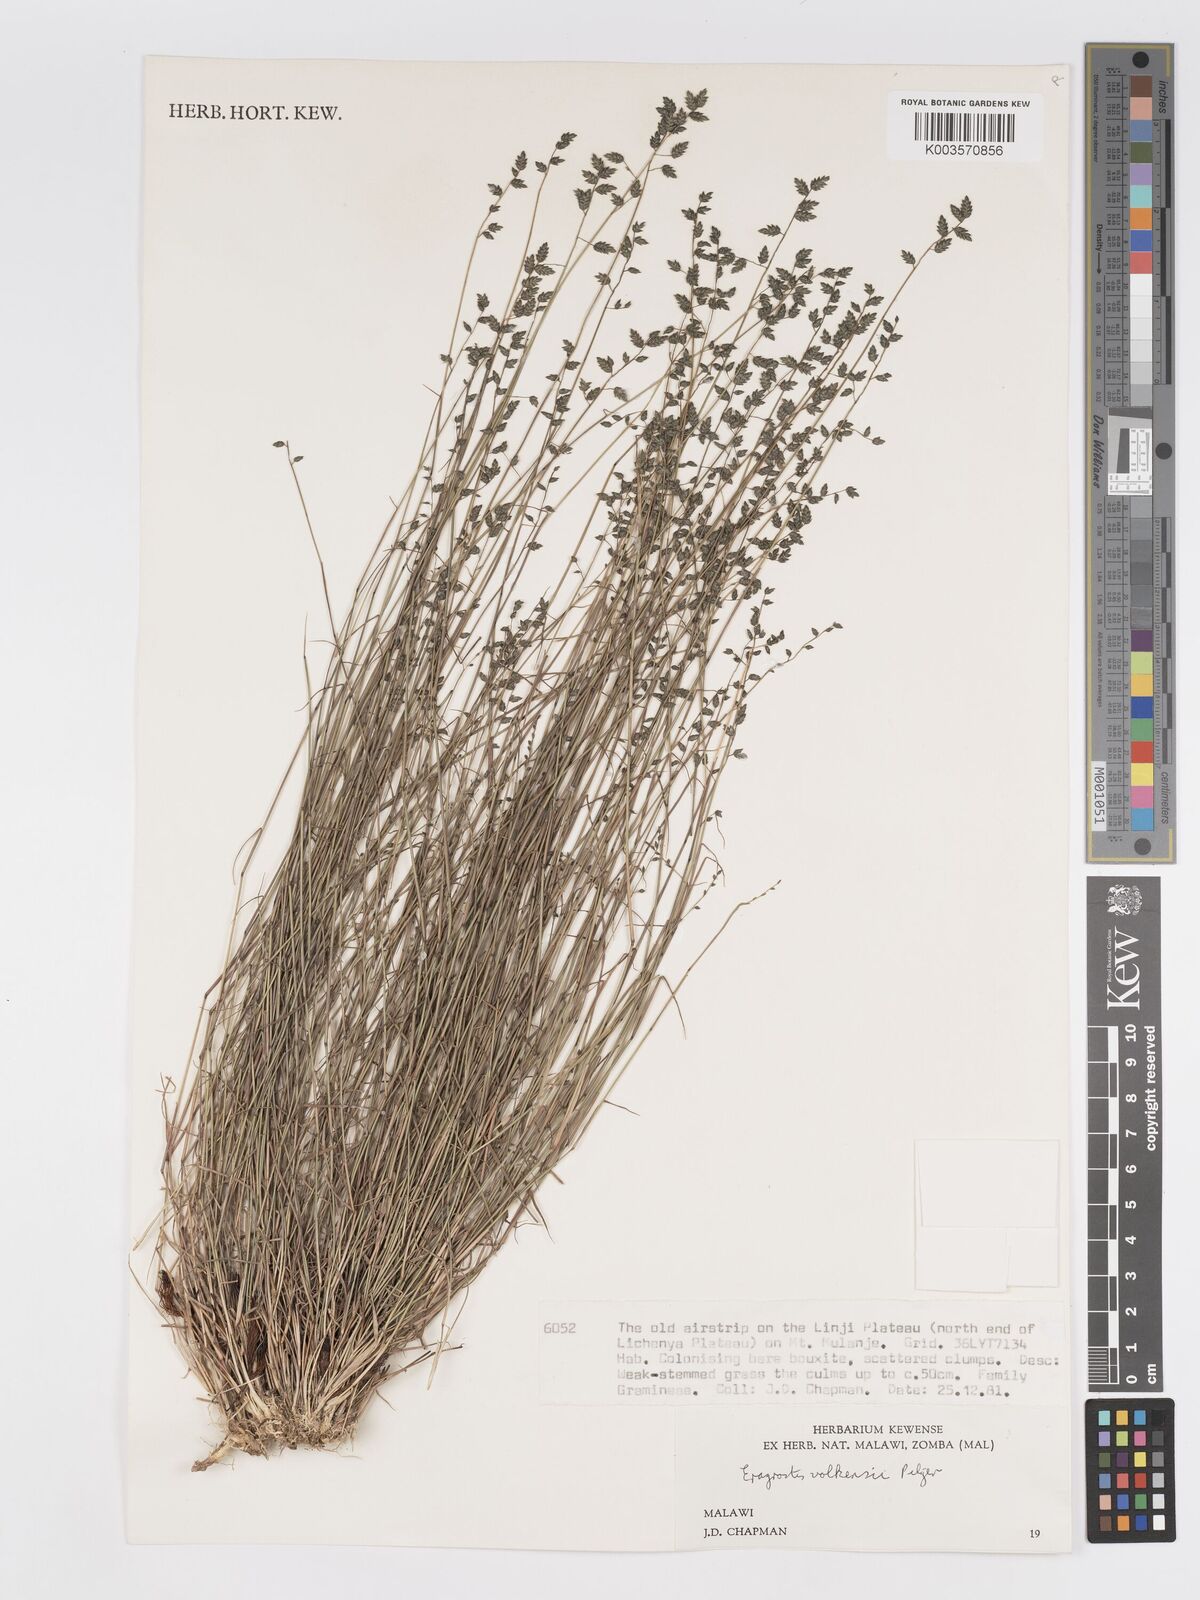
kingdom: Plantae
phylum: Tracheophyta
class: Liliopsida
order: Poales
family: Poaceae
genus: Eragrostis
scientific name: Eragrostis volkensii
